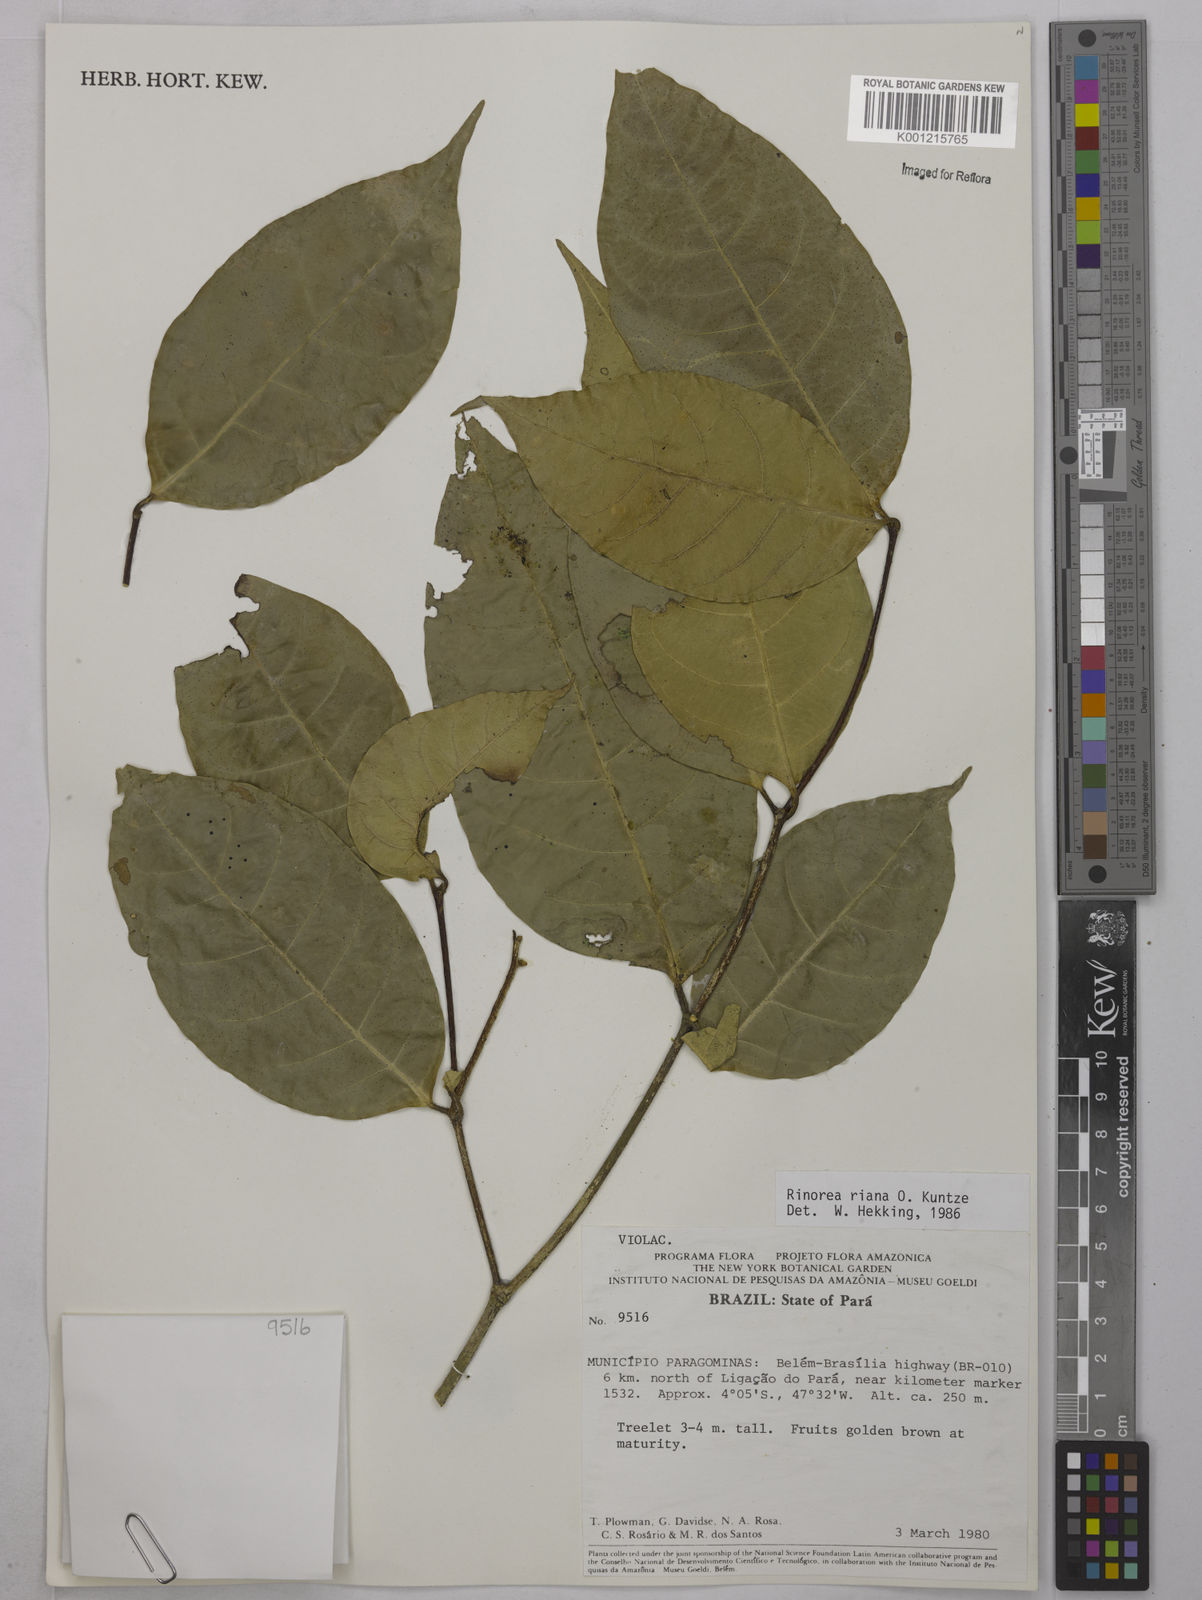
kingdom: Plantae
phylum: Tracheophyta
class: Magnoliopsida
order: Malpighiales
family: Violaceae
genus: Rinorea
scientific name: Rinorea riana
